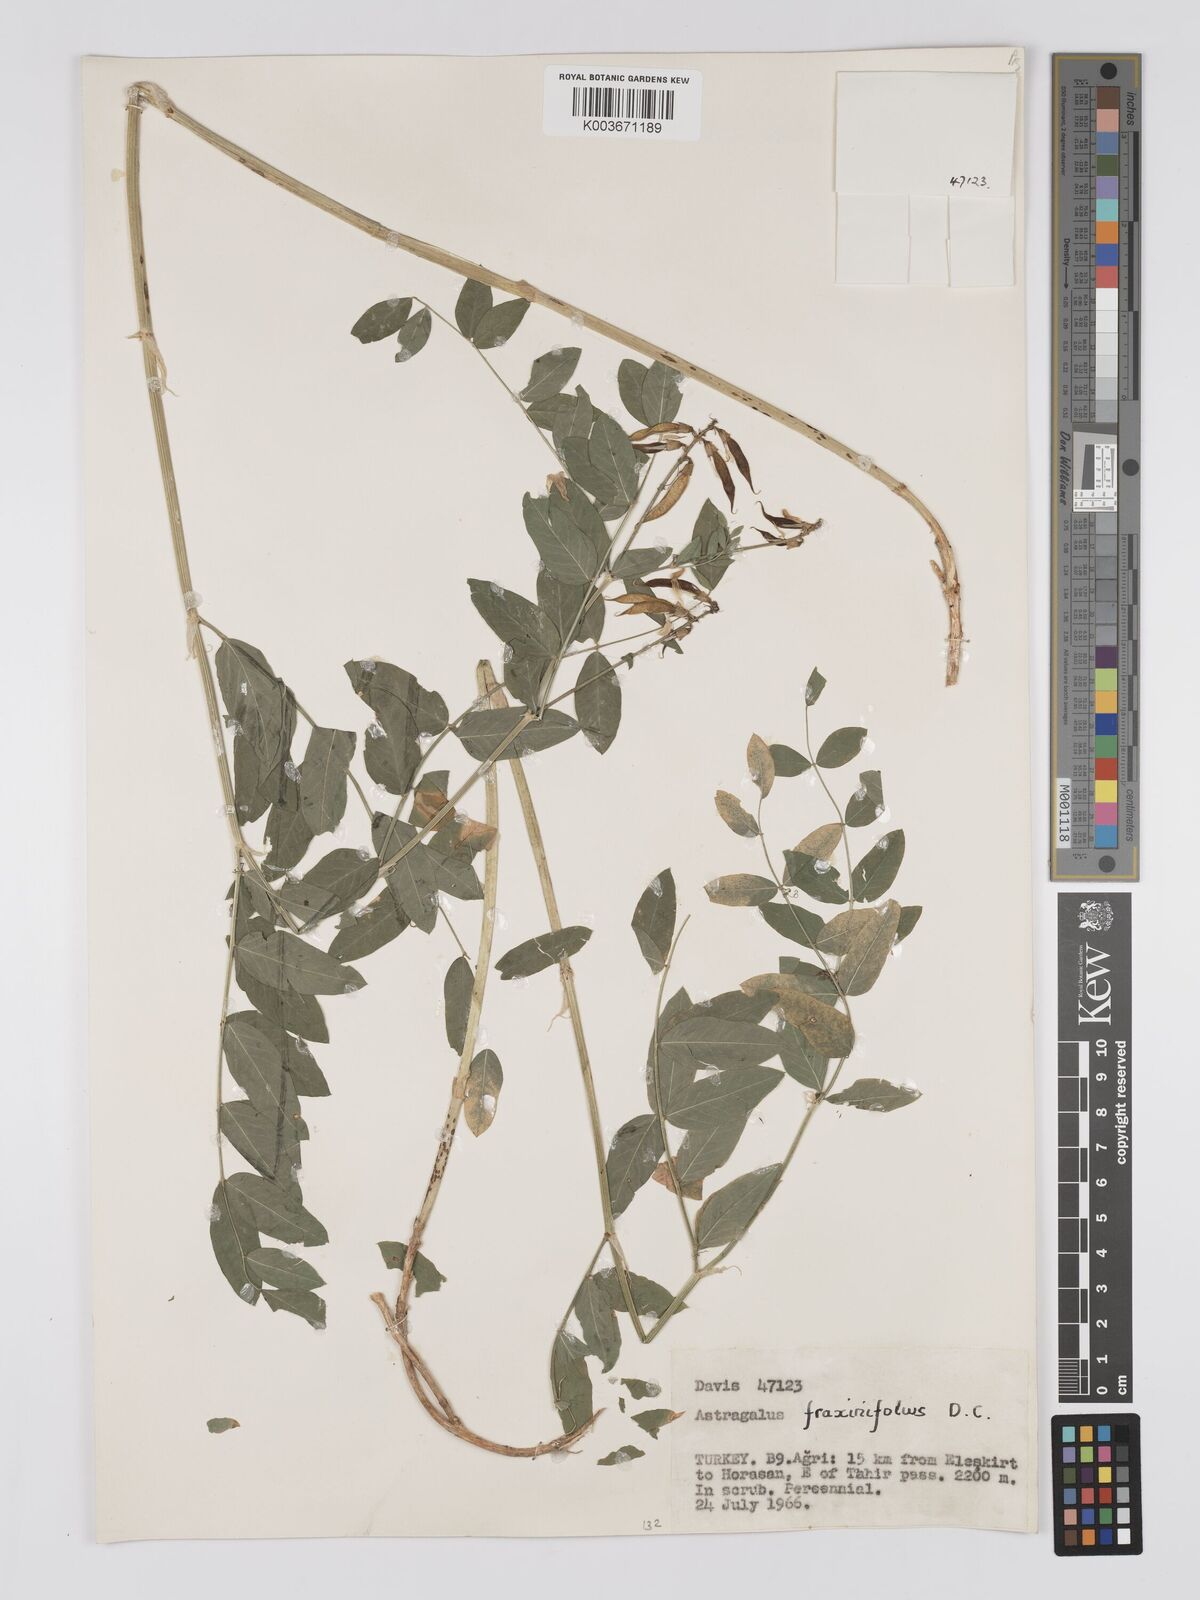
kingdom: Plantae
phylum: Tracheophyta
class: Magnoliopsida
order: Fabales
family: Fabaceae
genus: Astragalus
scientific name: Astragalus fraxinifolius
